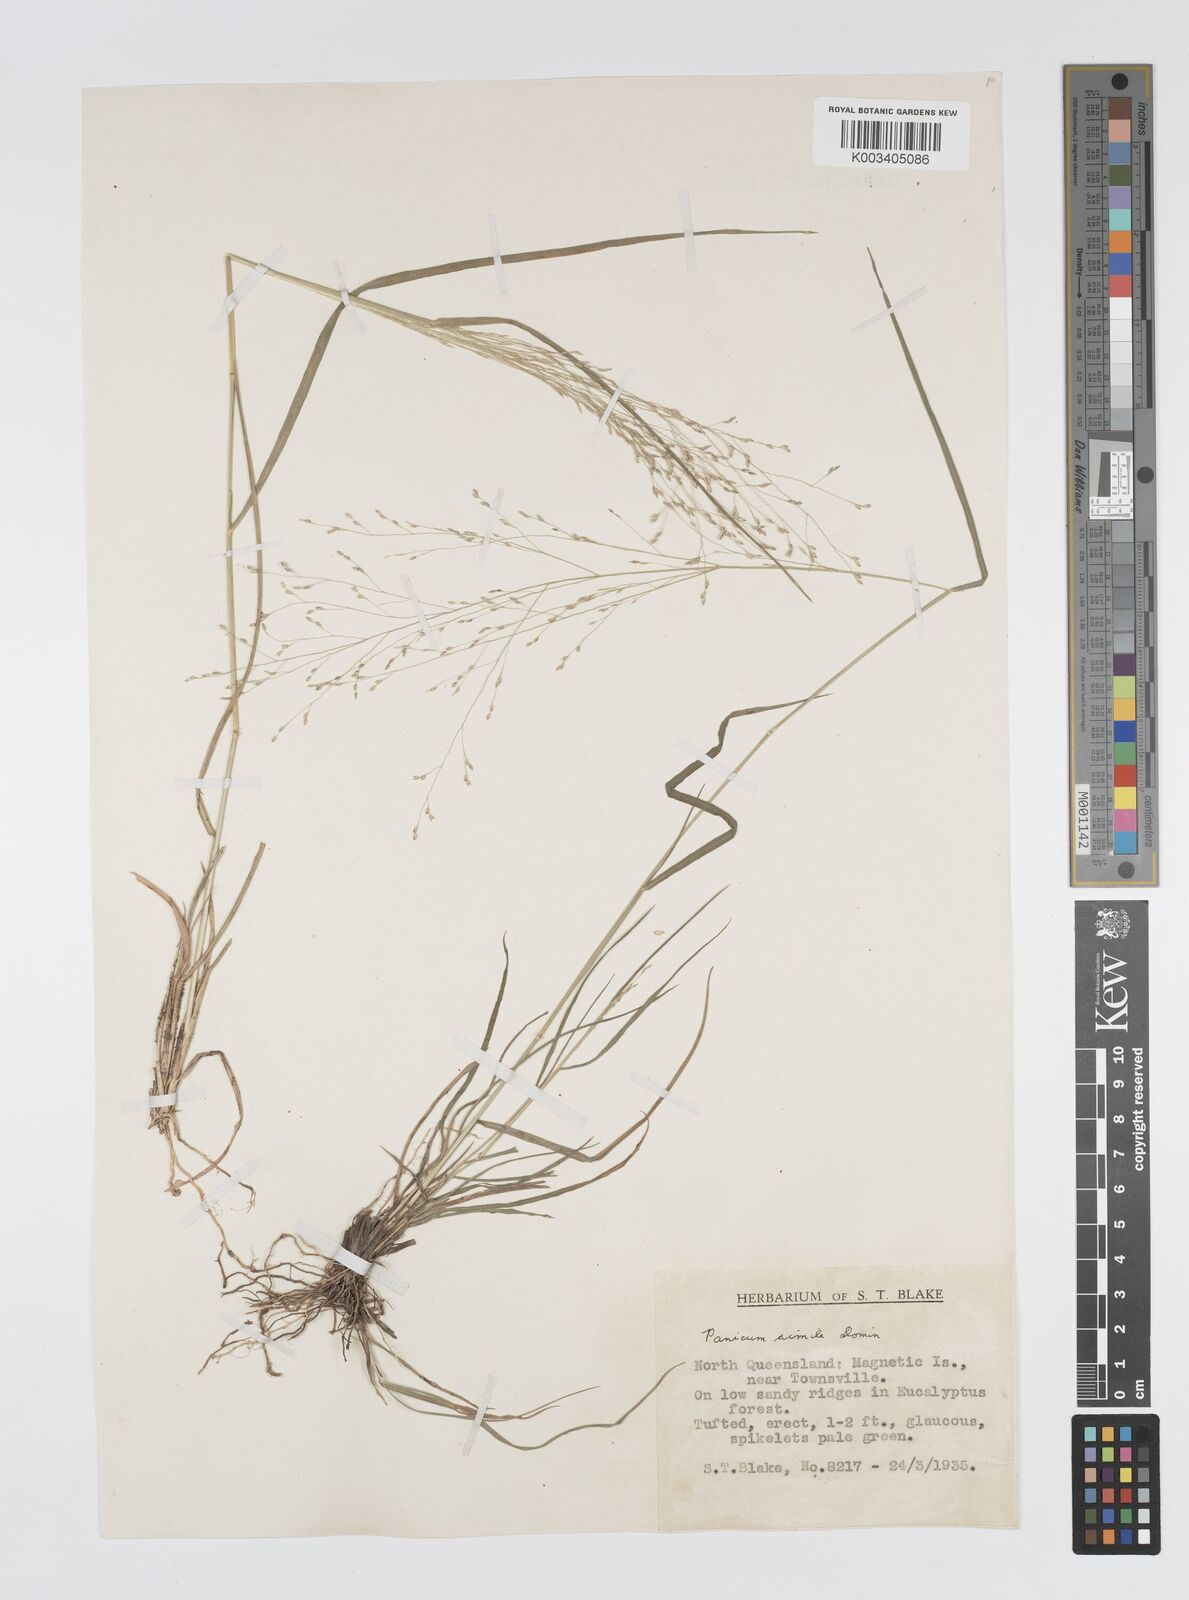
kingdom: Plantae
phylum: Tracheophyta
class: Liliopsida
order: Poales
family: Poaceae
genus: Panicum
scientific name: Panicum simile
